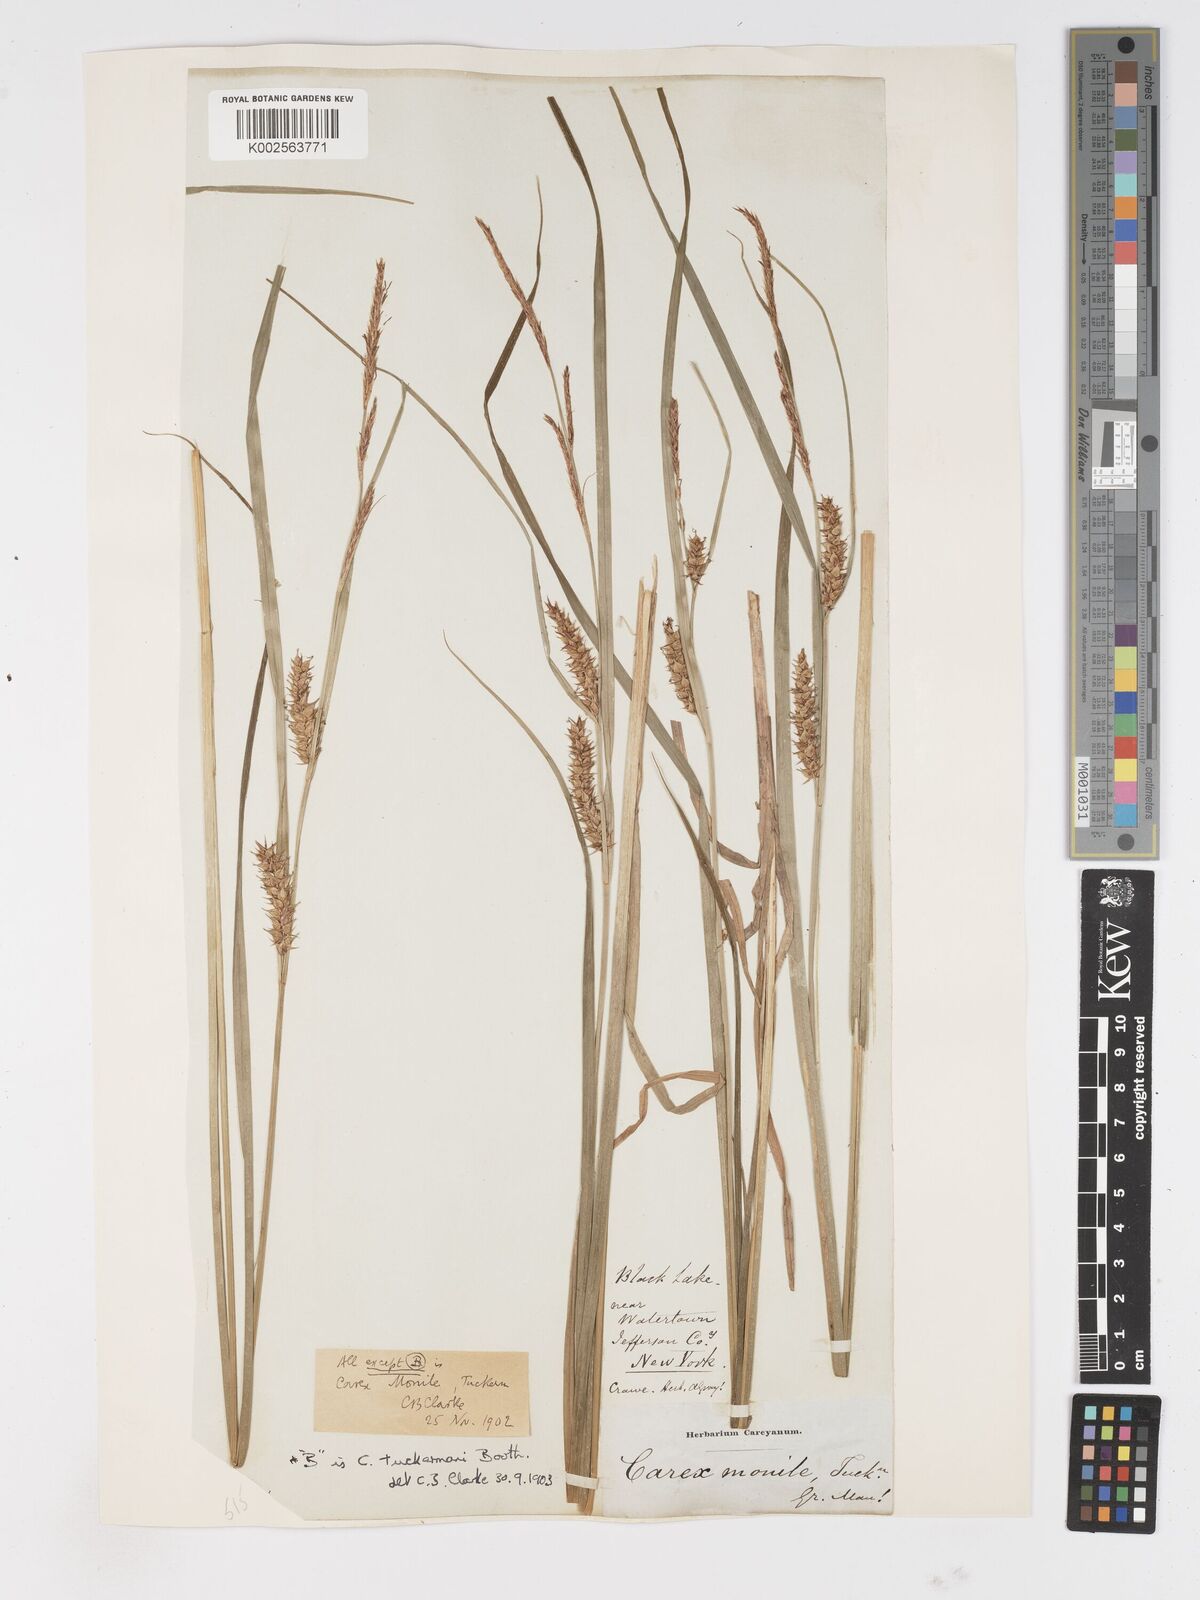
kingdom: Plantae
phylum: Tracheophyta
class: Liliopsida
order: Poales
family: Cyperaceae
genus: Carex
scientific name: Carex vesicaria
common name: Bladder-sedge
